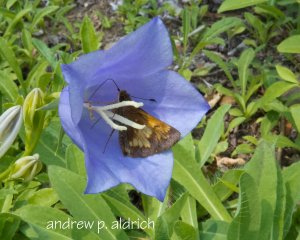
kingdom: Animalia
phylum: Arthropoda
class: Insecta
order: Lepidoptera
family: Hesperiidae
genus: Polites
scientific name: Polites coras
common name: Peck's Skipper
